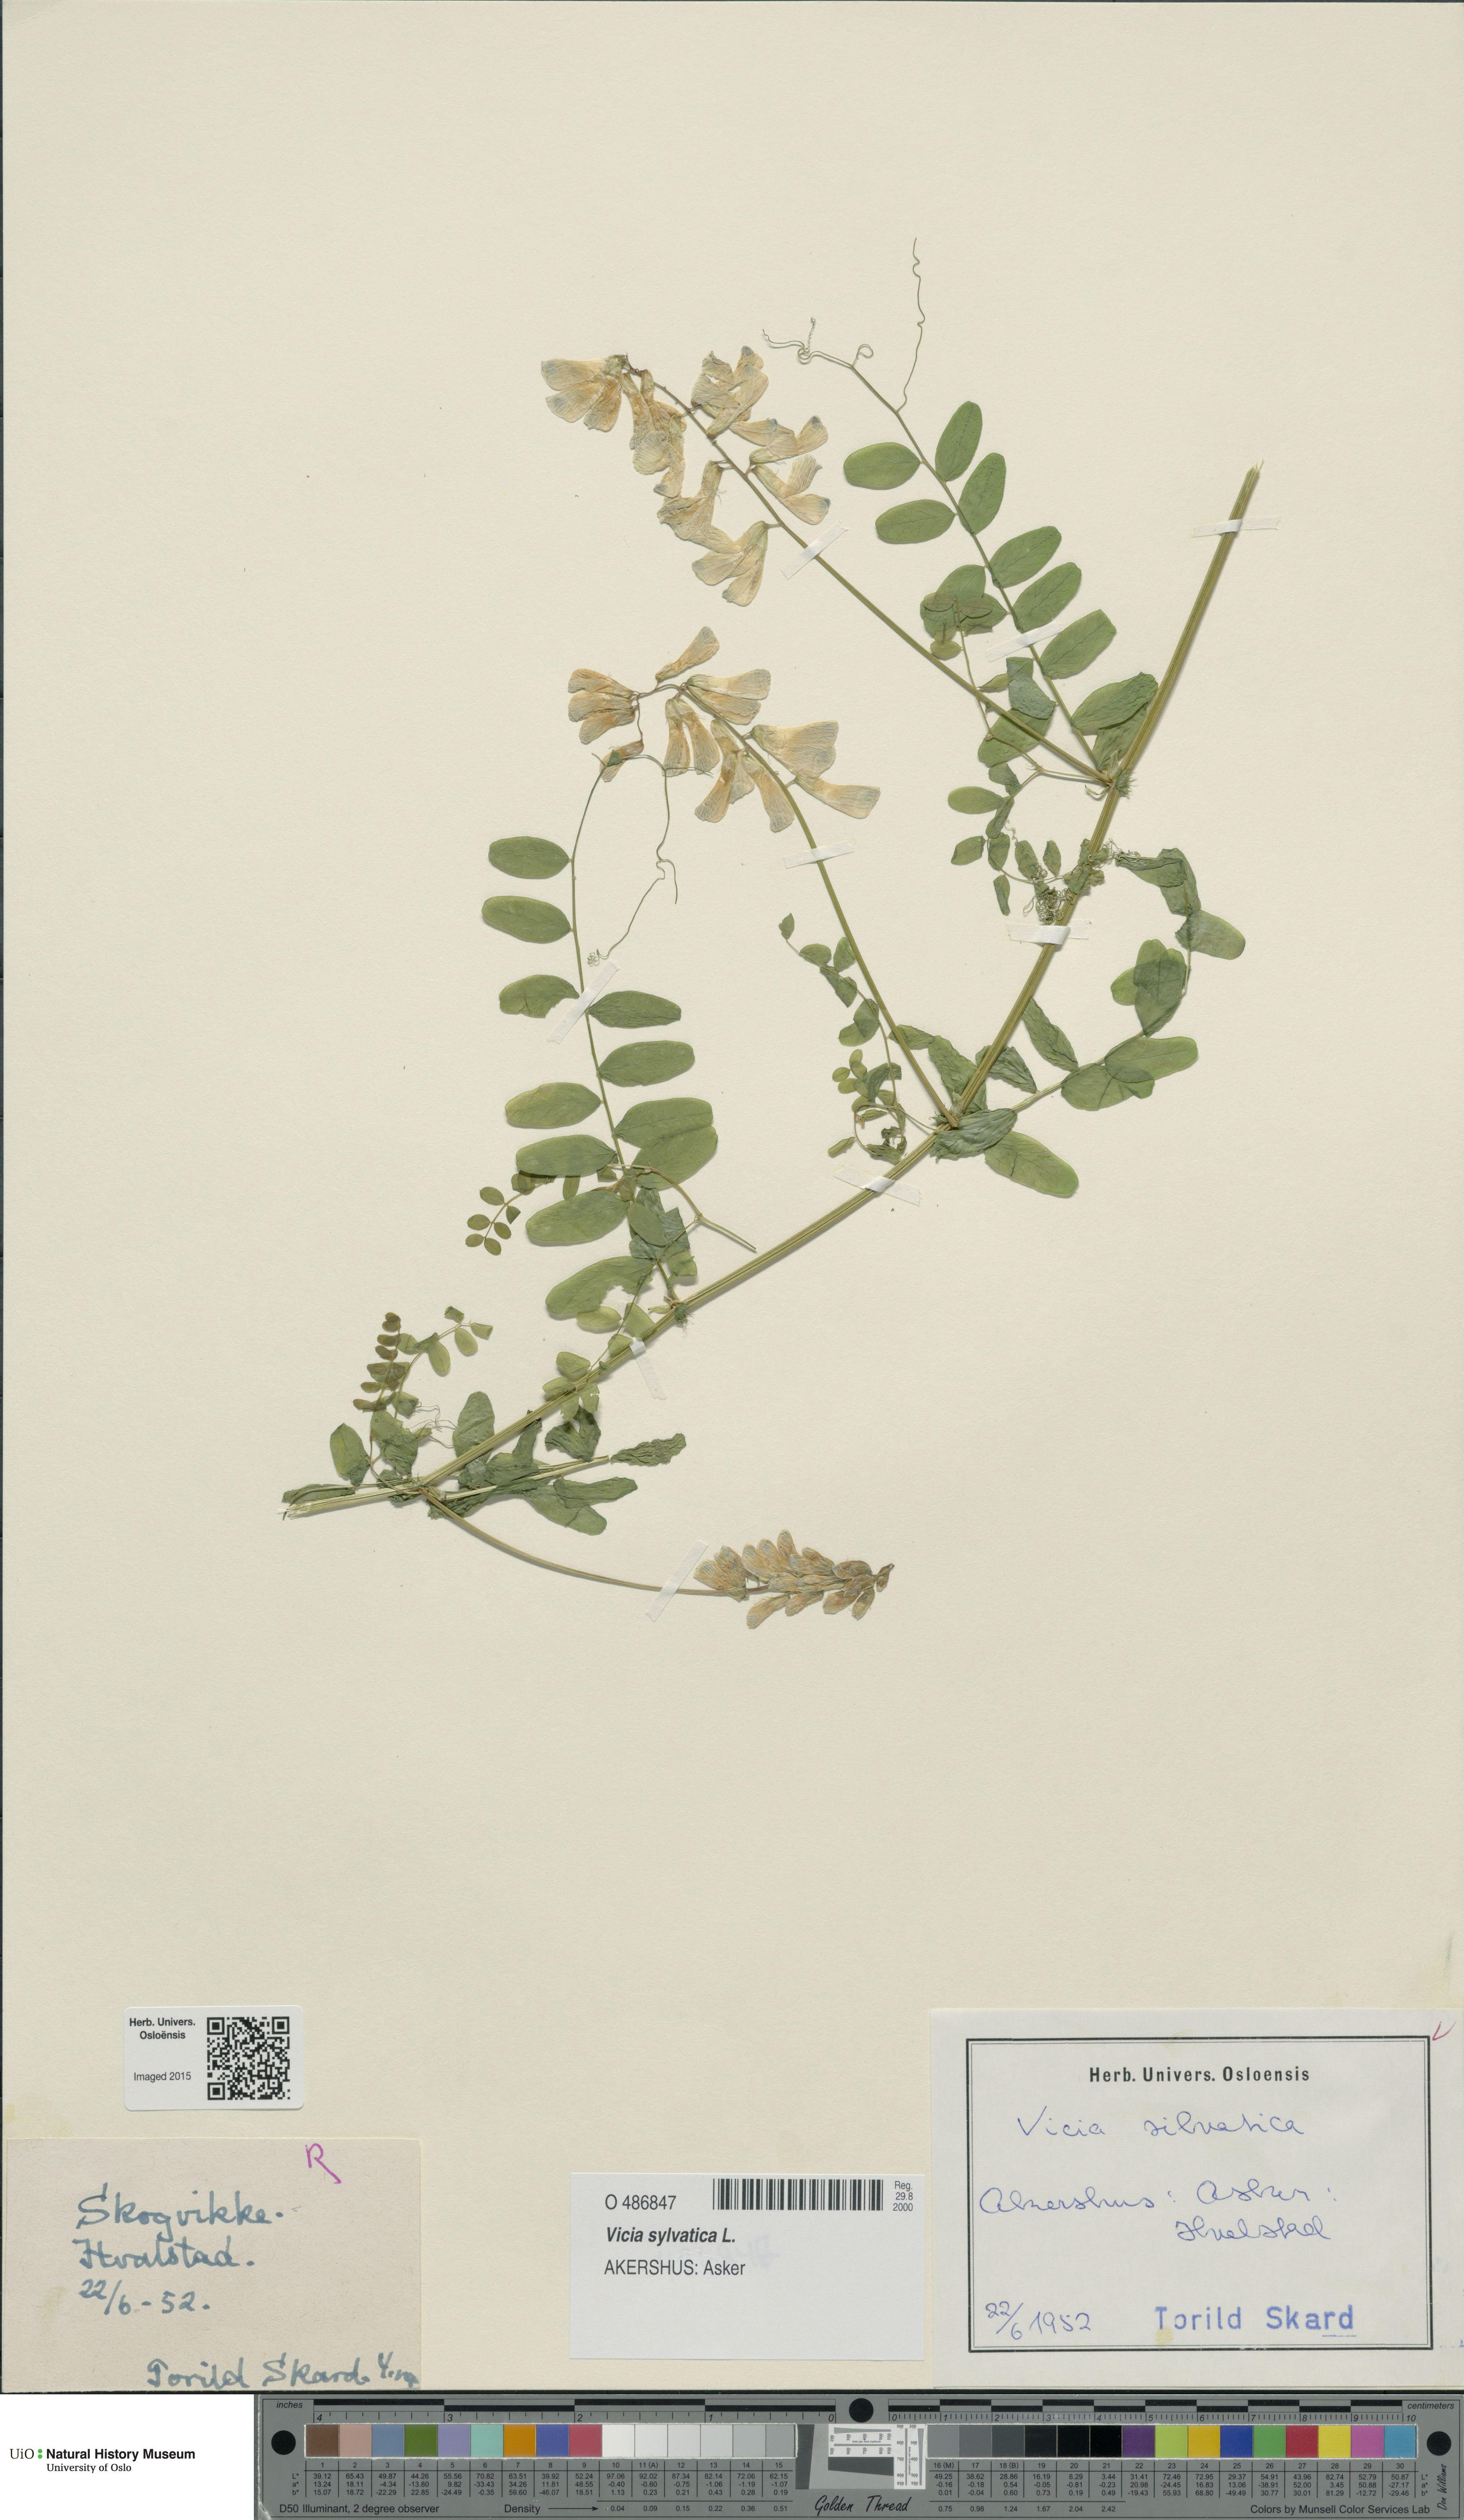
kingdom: Plantae
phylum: Tracheophyta
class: Magnoliopsida
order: Fabales
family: Fabaceae
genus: Vicia
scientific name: Vicia sylvatica
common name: Wood vetch
